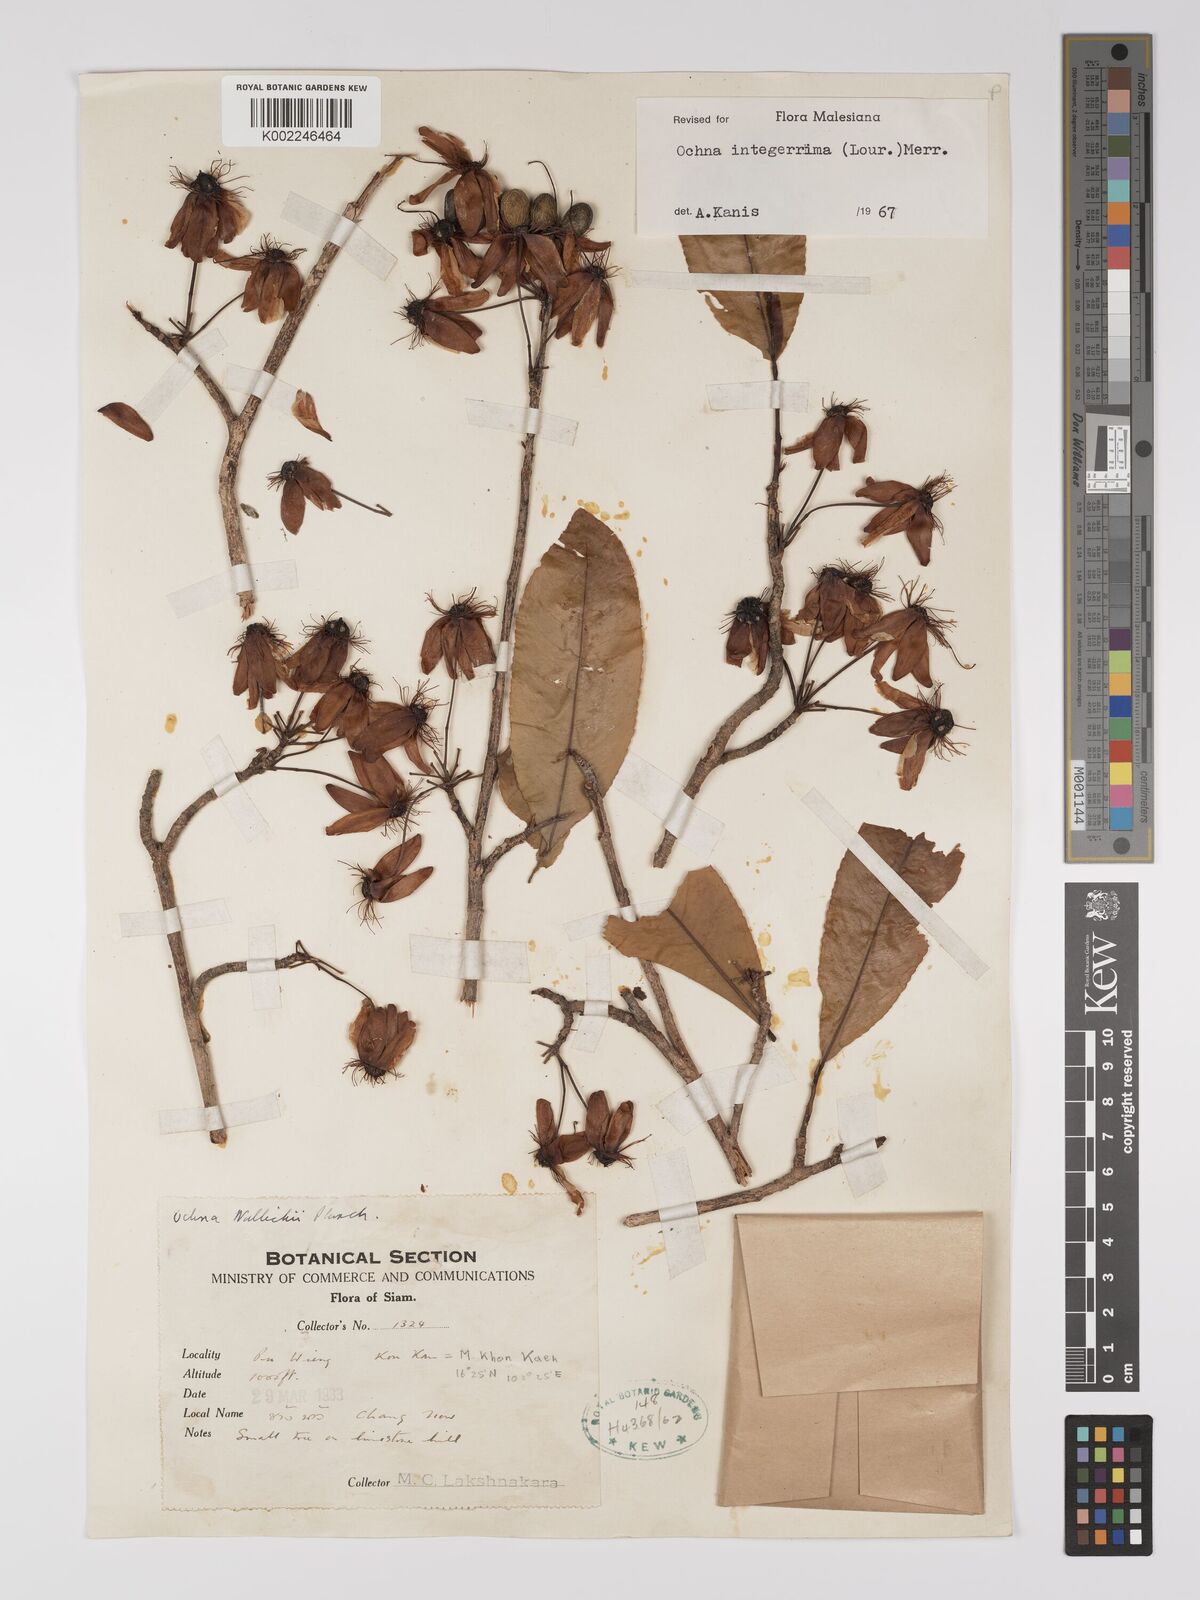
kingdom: Plantae
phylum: Tracheophyta
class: Magnoliopsida
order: Malpighiales
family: Ochnaceae
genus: Ochna
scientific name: Ochna integerrima
